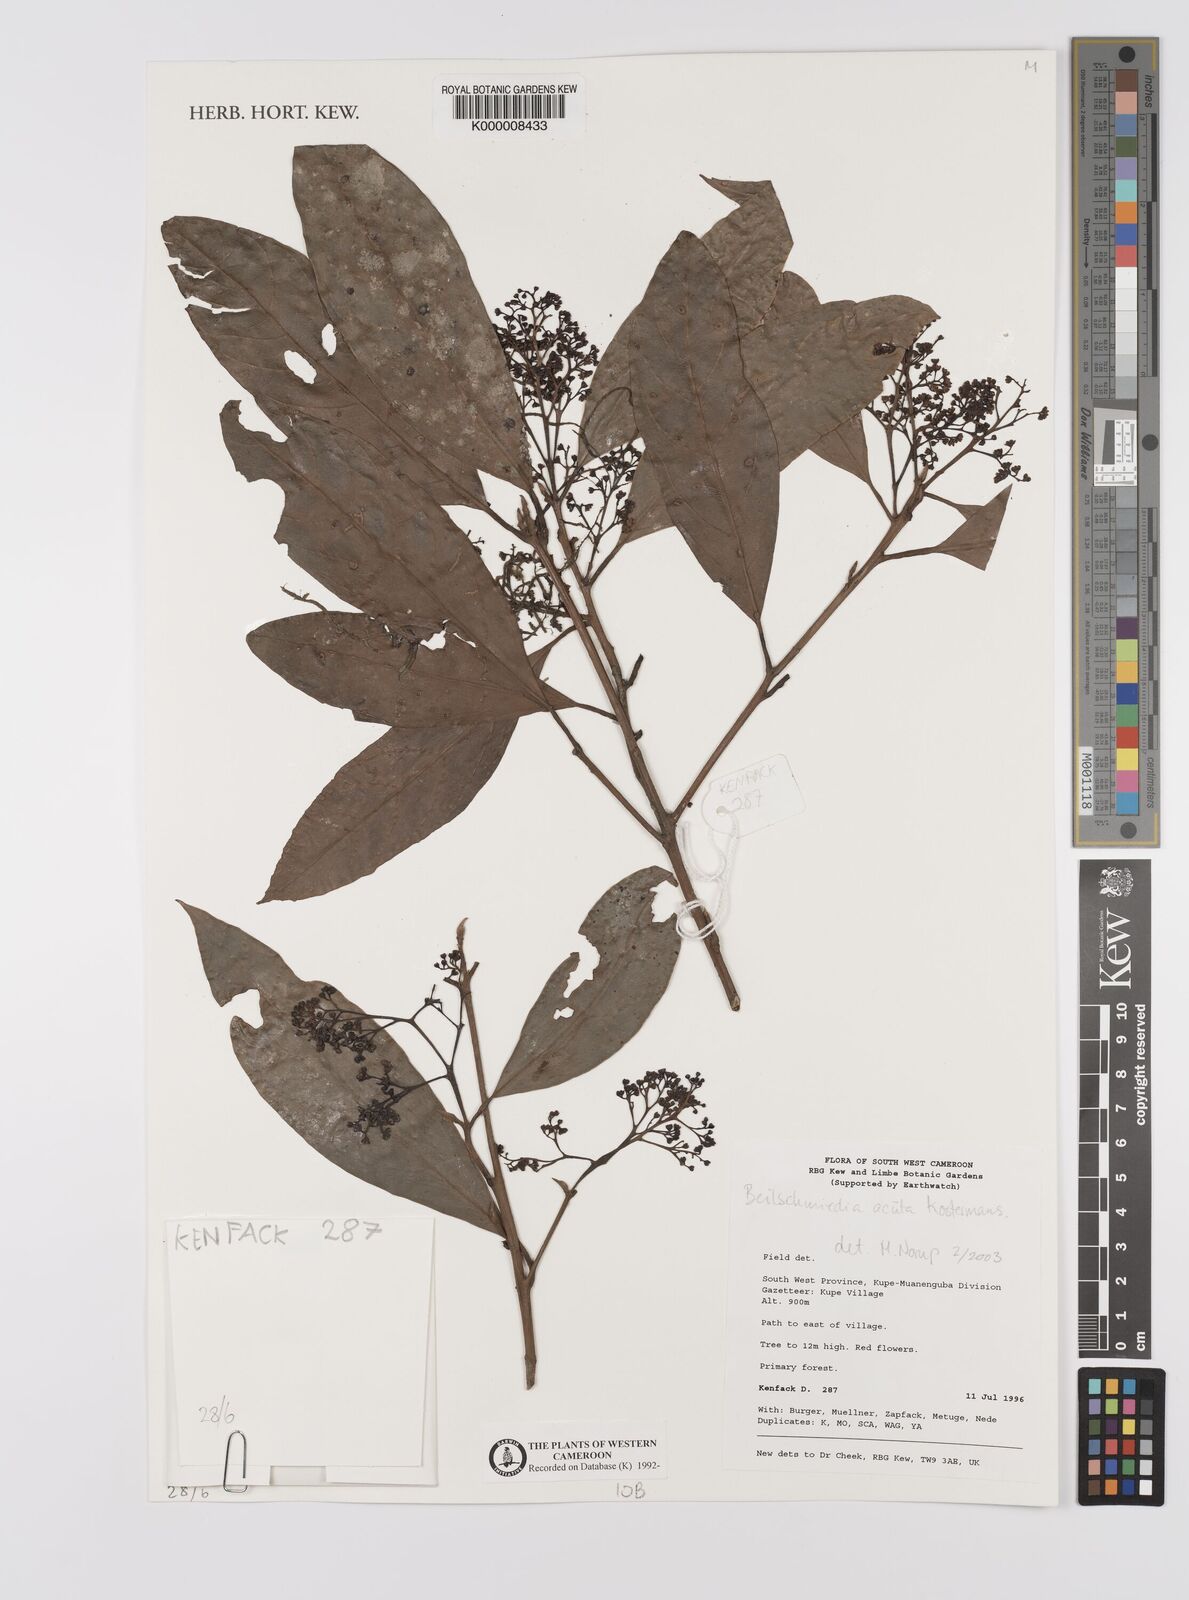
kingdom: Plantae
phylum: Tracheophyta
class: Magnoliopsida
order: Laurales
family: Lauraceae
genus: Beilschmiedia
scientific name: Beilschmiedia acuta
